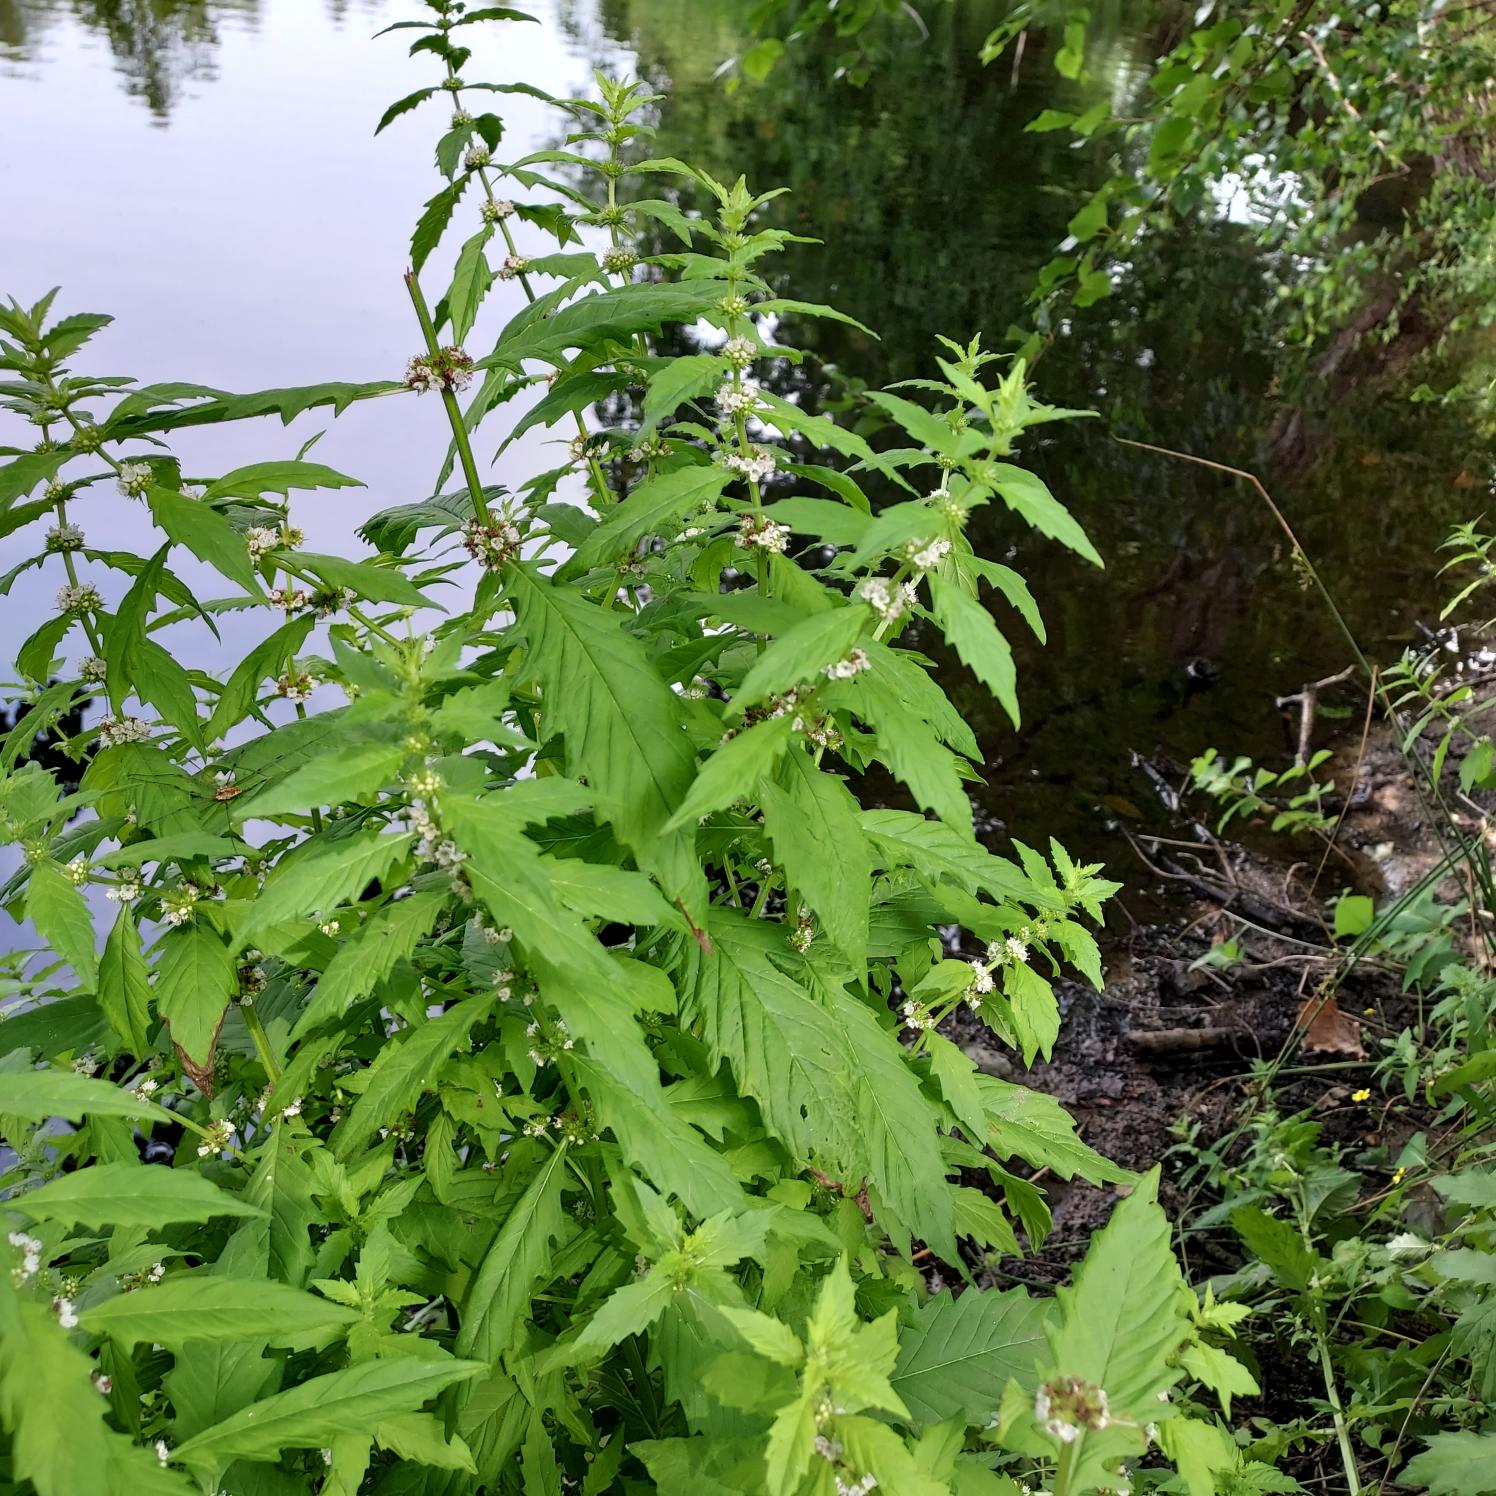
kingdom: Plantae
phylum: Tracheophyta
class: Magnoliopsida
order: Lamiales
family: Lamiaceae
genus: Lycopus
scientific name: Lycopus europaeus
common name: Sværtevæld
